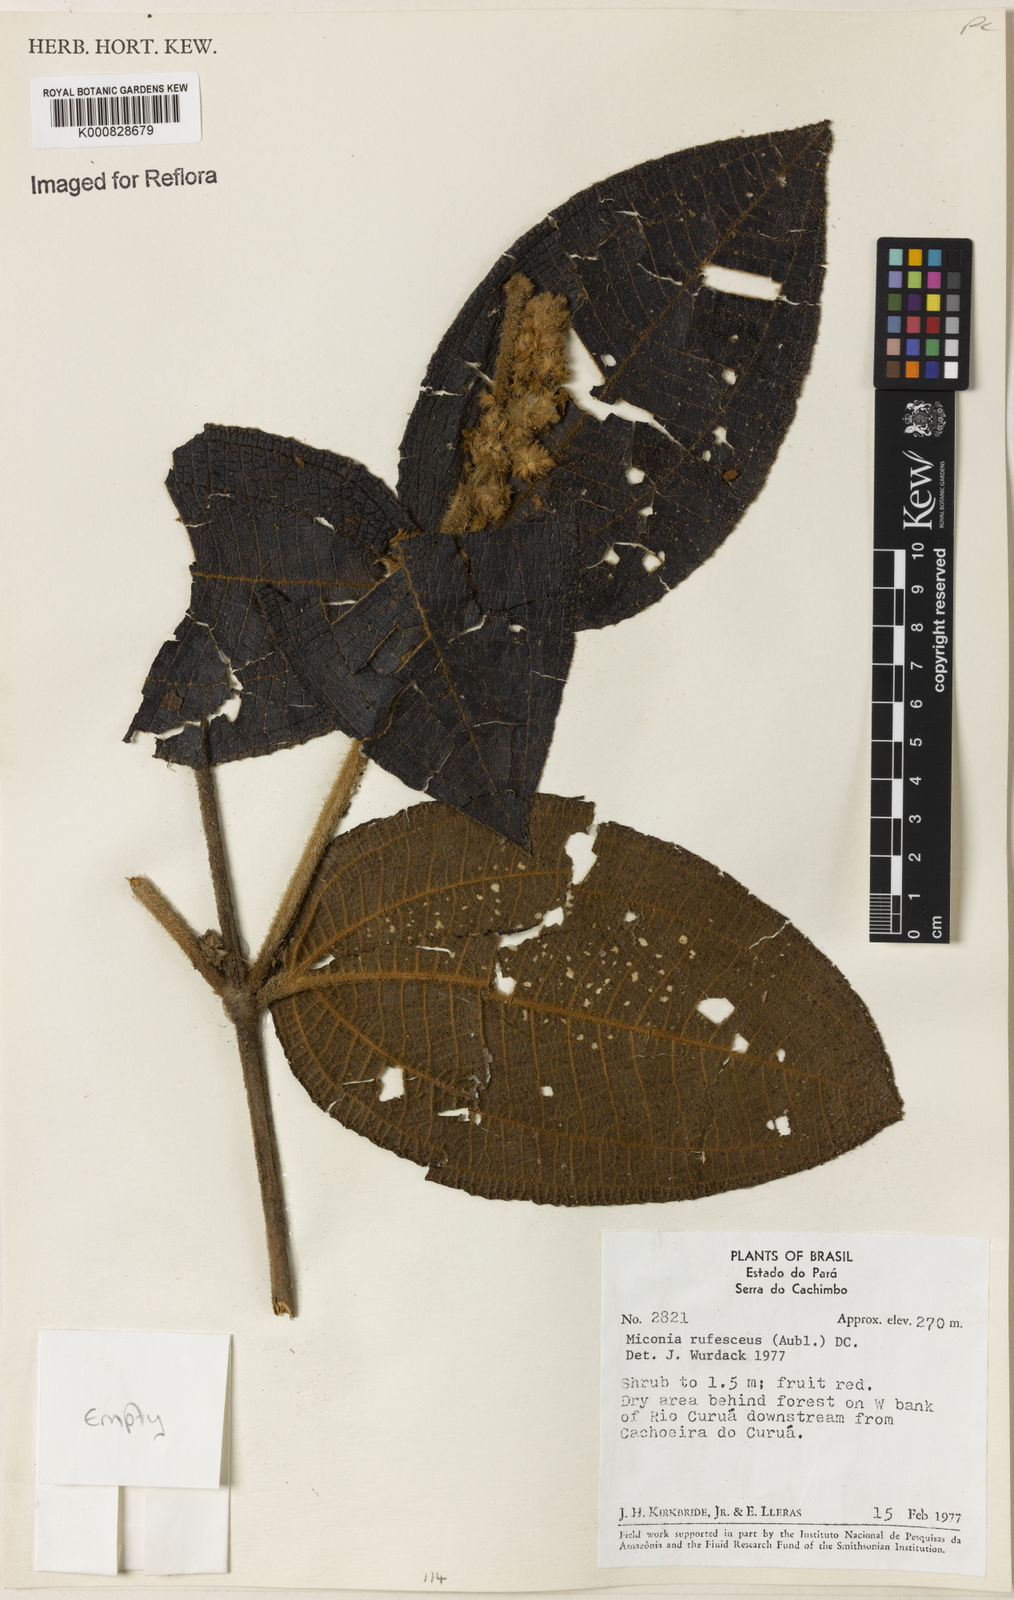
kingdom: Plantae
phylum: Tracheophyta
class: Magnoliopsida
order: Myrtales
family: Melastomataceae
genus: Miconia
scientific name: Miconia rufescens
